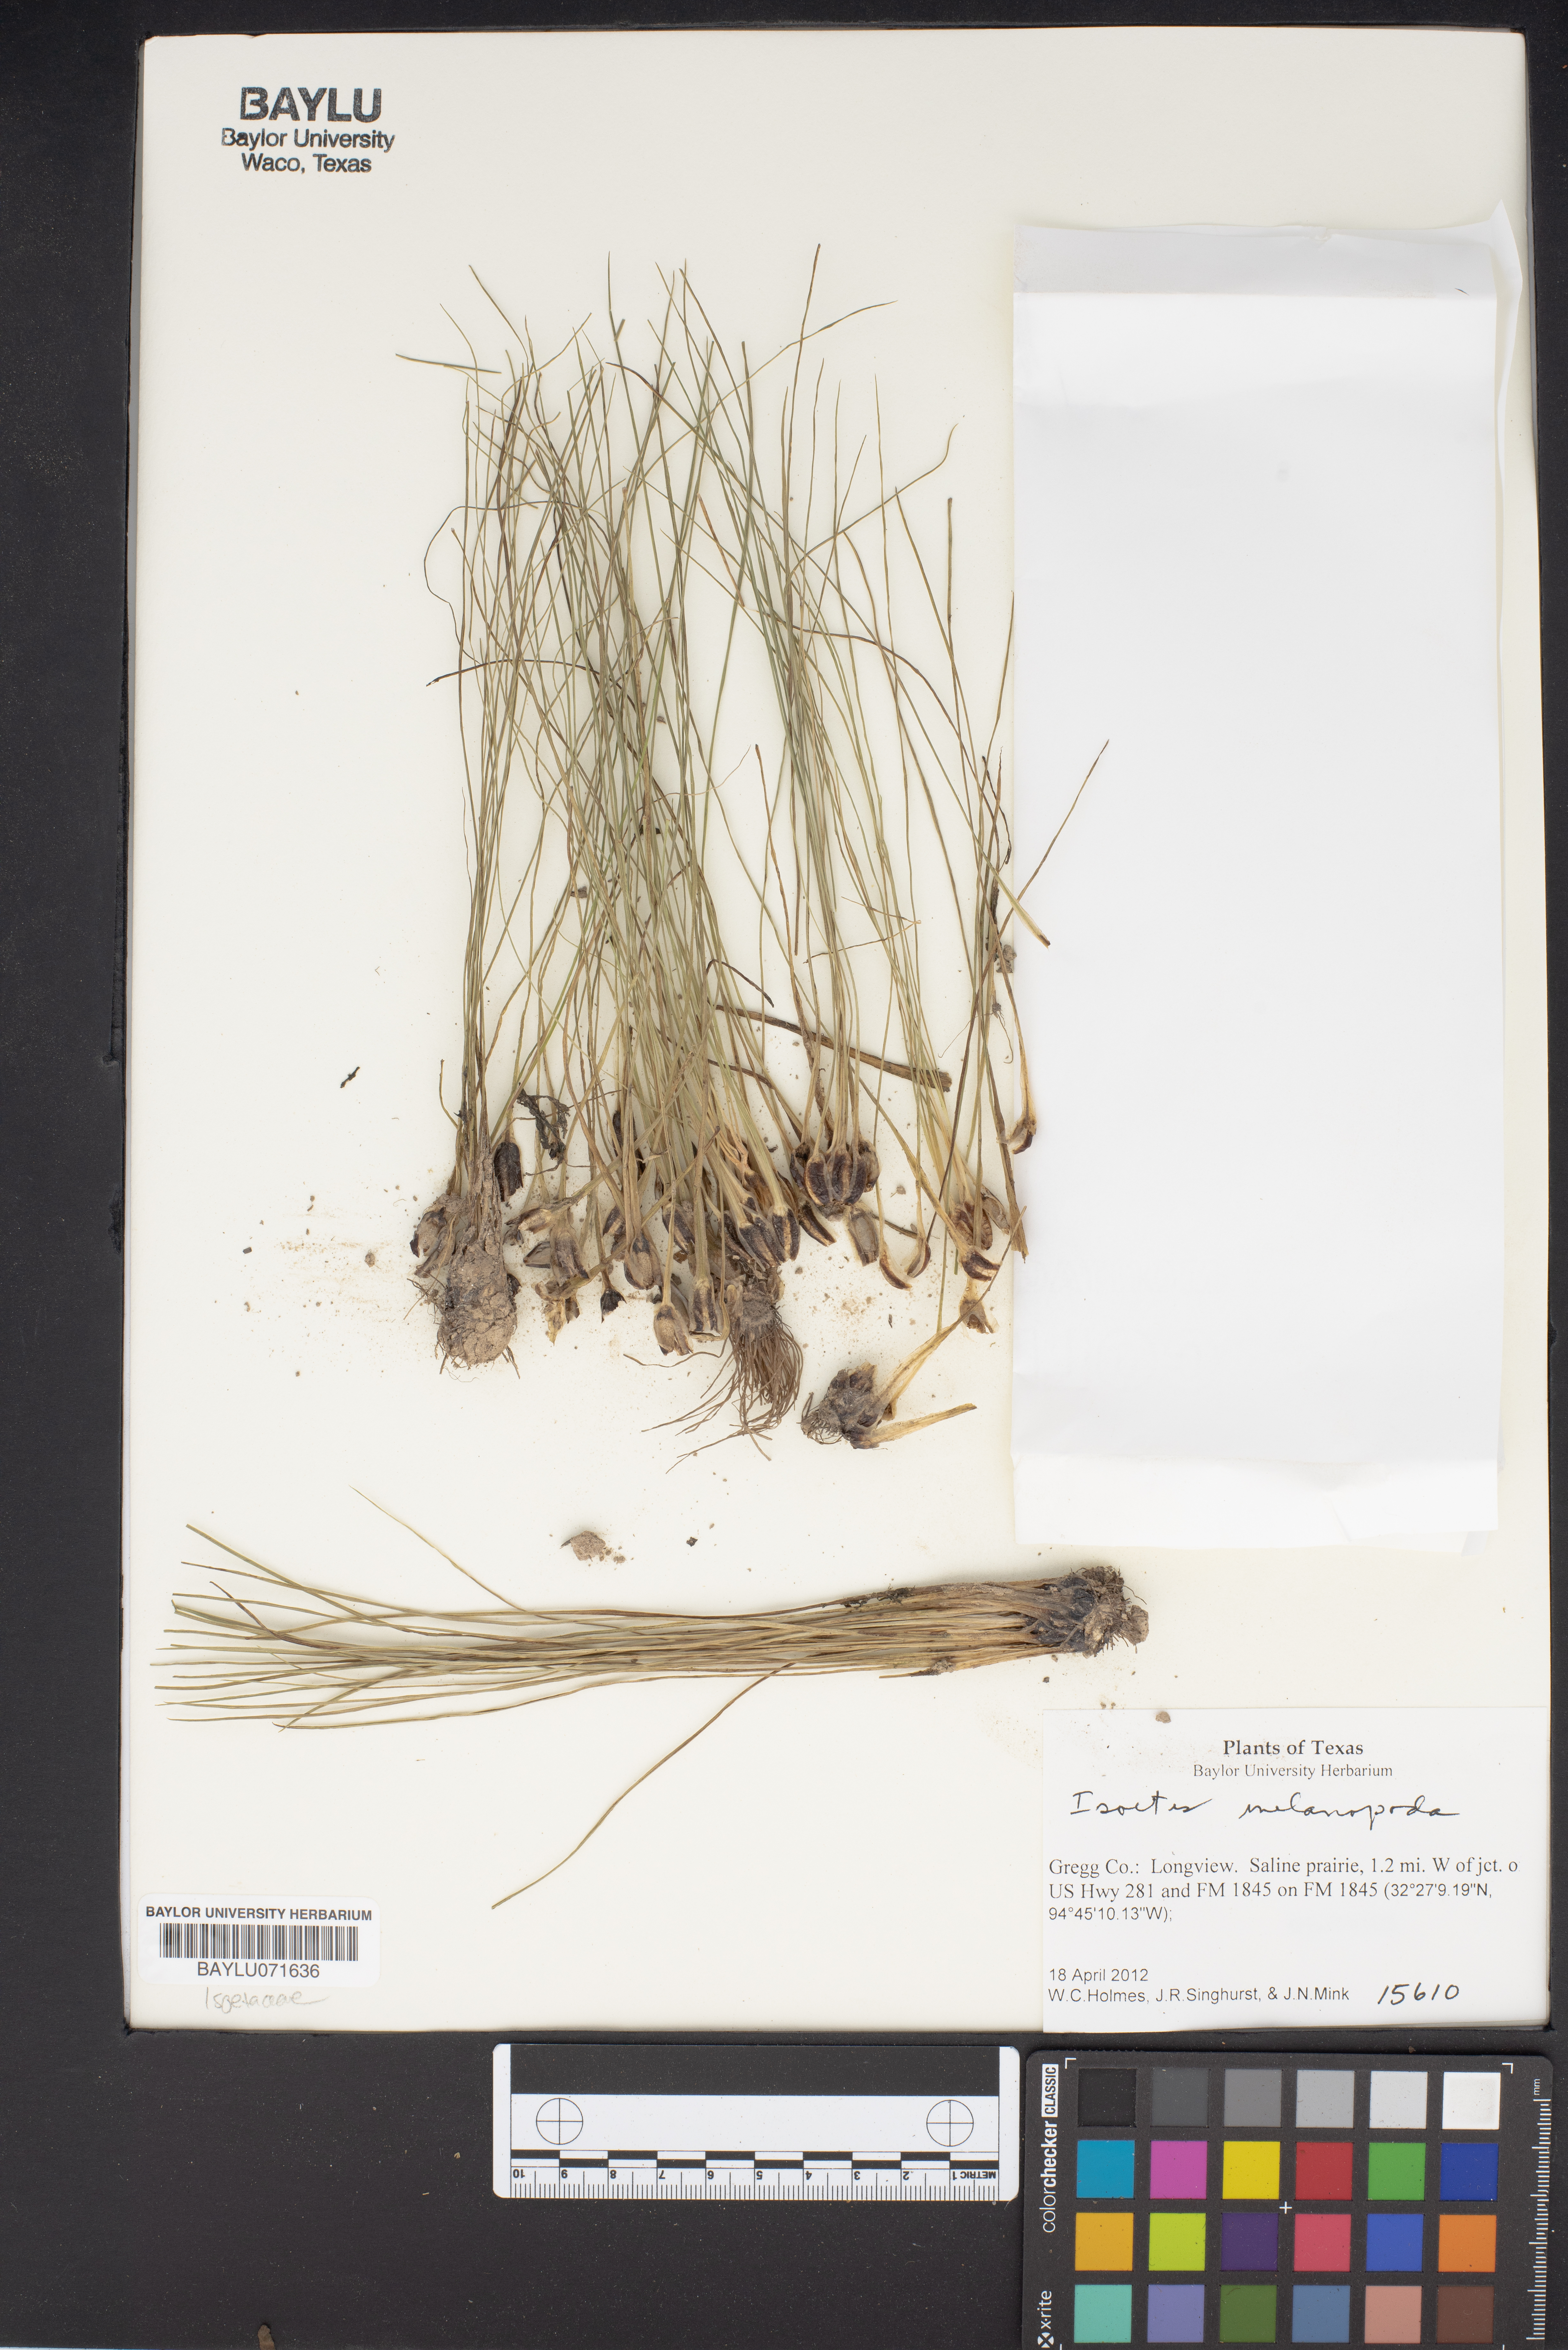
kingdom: Plantae
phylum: Tracheophyta
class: Magnoliopsida
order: Brassicales
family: Brassicaceae
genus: Isatis
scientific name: Isatis microcarpa
